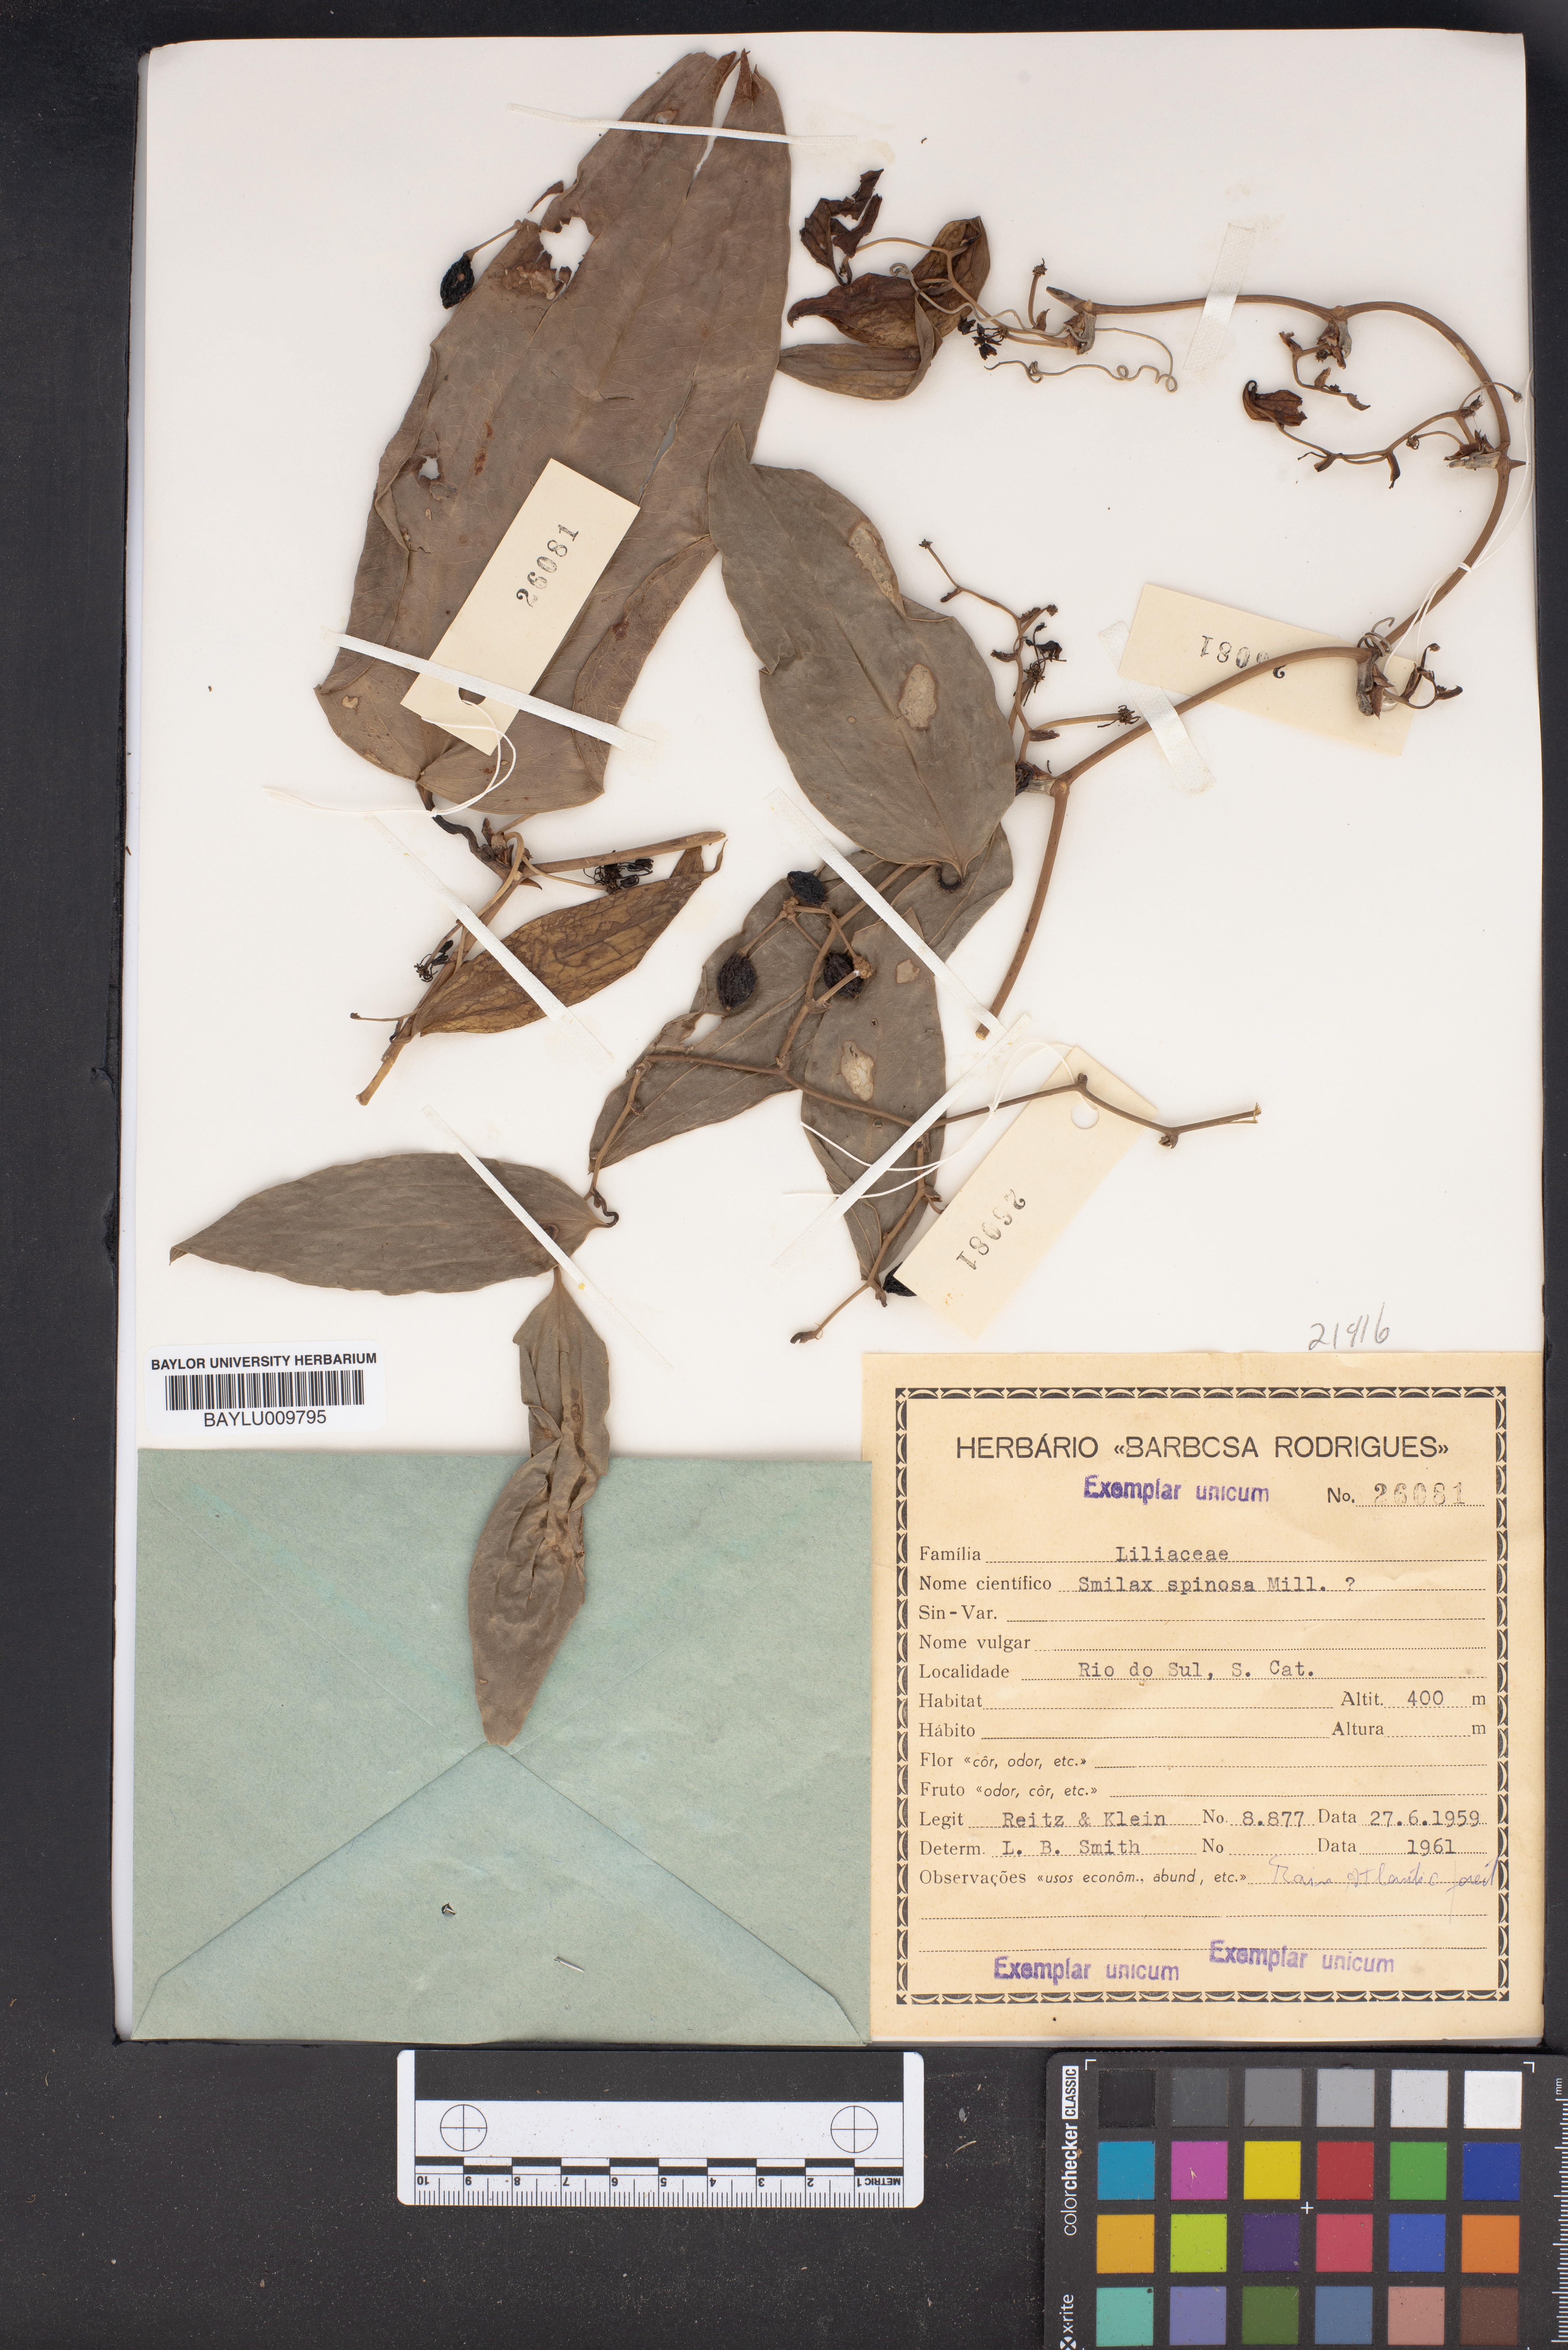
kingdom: Plantae
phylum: Tracheophyta
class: Liliopsida
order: Liliales
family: Smilacaceae
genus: Smilax
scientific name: Smilax spinosa
